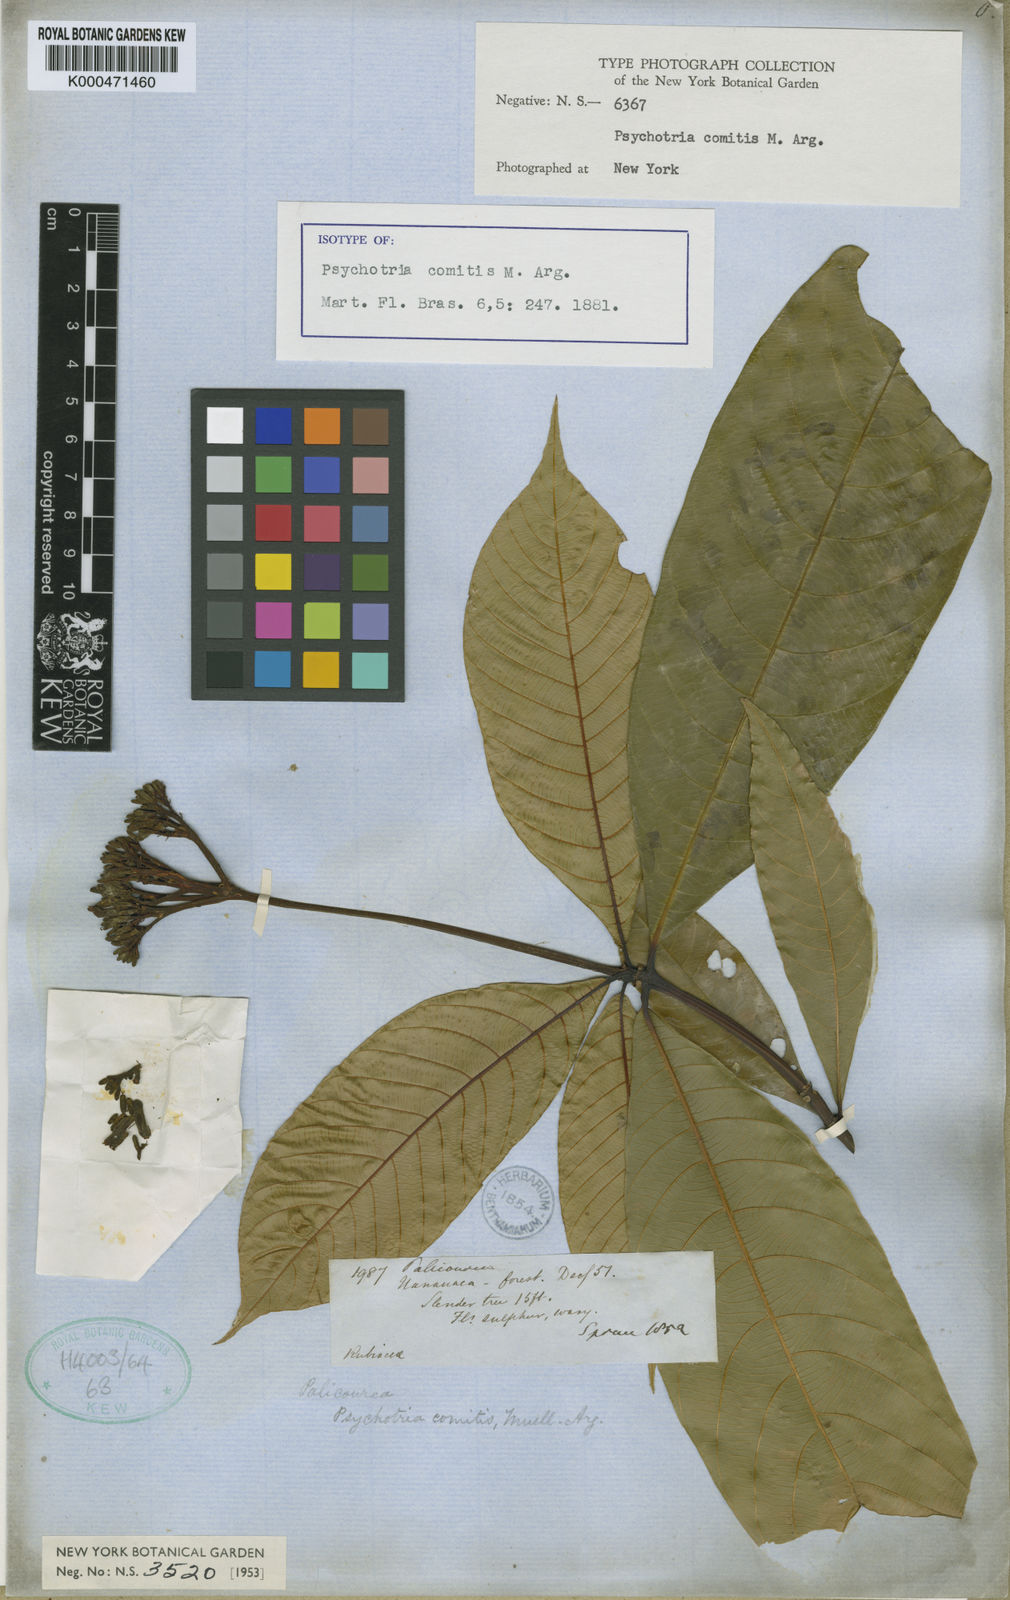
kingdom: Plantae
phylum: Tracheophyta
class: Magnoliopsida
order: Gentianales
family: Rubiaceae
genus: Palicourea
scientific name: Palicourea
